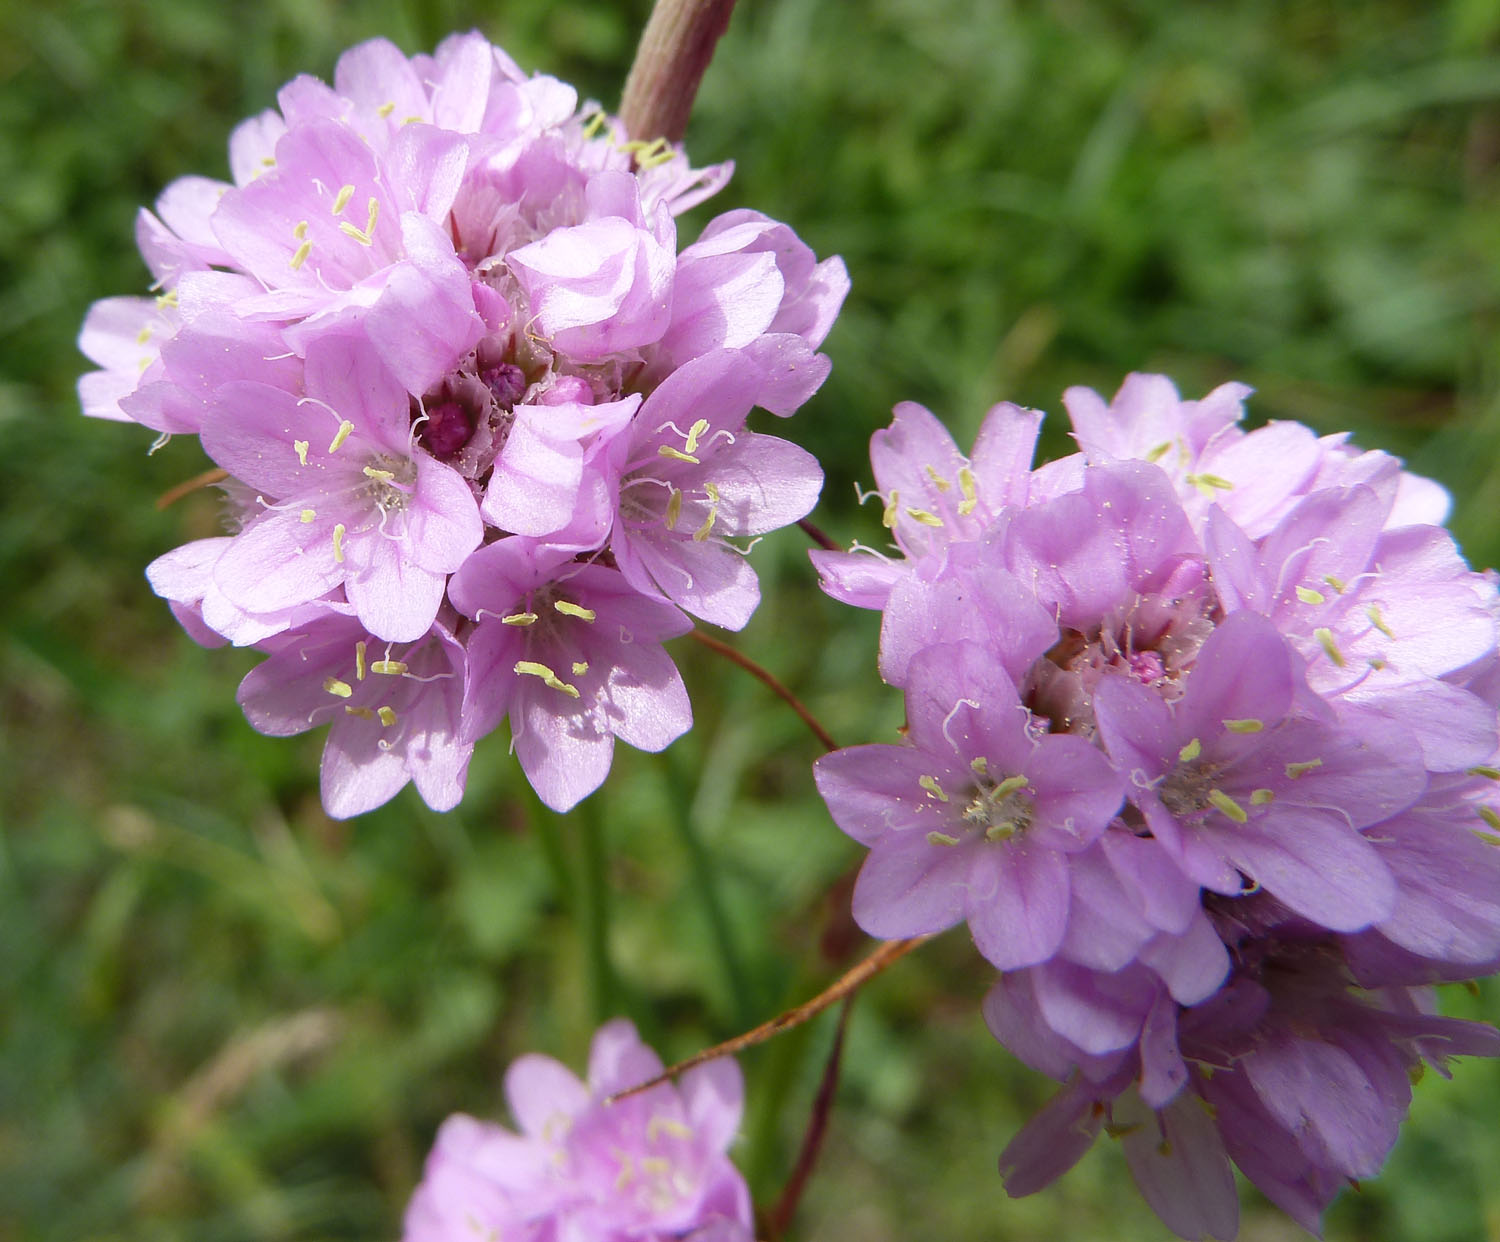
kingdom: Plantae
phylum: Tracheophyta
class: Magnoliopsida
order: Caryophyllales
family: Plumbaginaceae
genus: Armeria
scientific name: Armeria maritima
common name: Thrift
